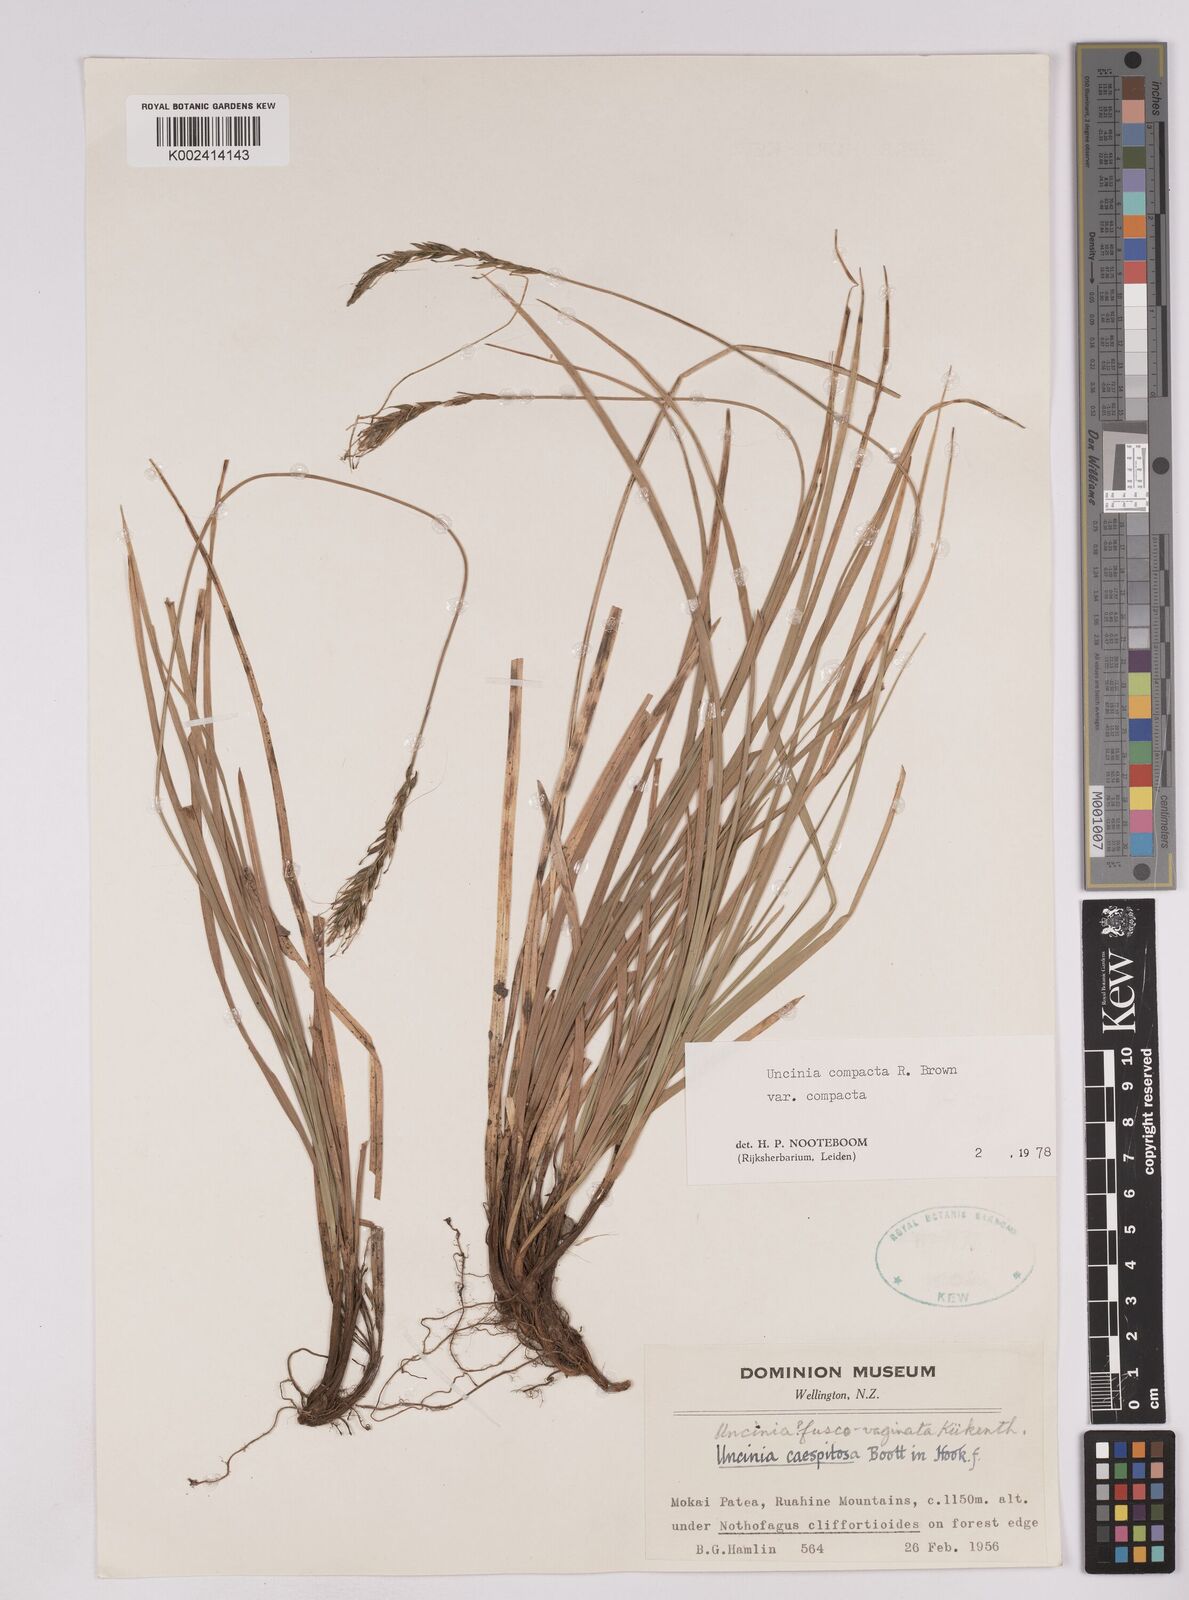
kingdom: Plantae
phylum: Tracheophyta
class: Liliopsida
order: Poales
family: Cyperaceae
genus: Carex
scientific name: Carex austrocompacta
